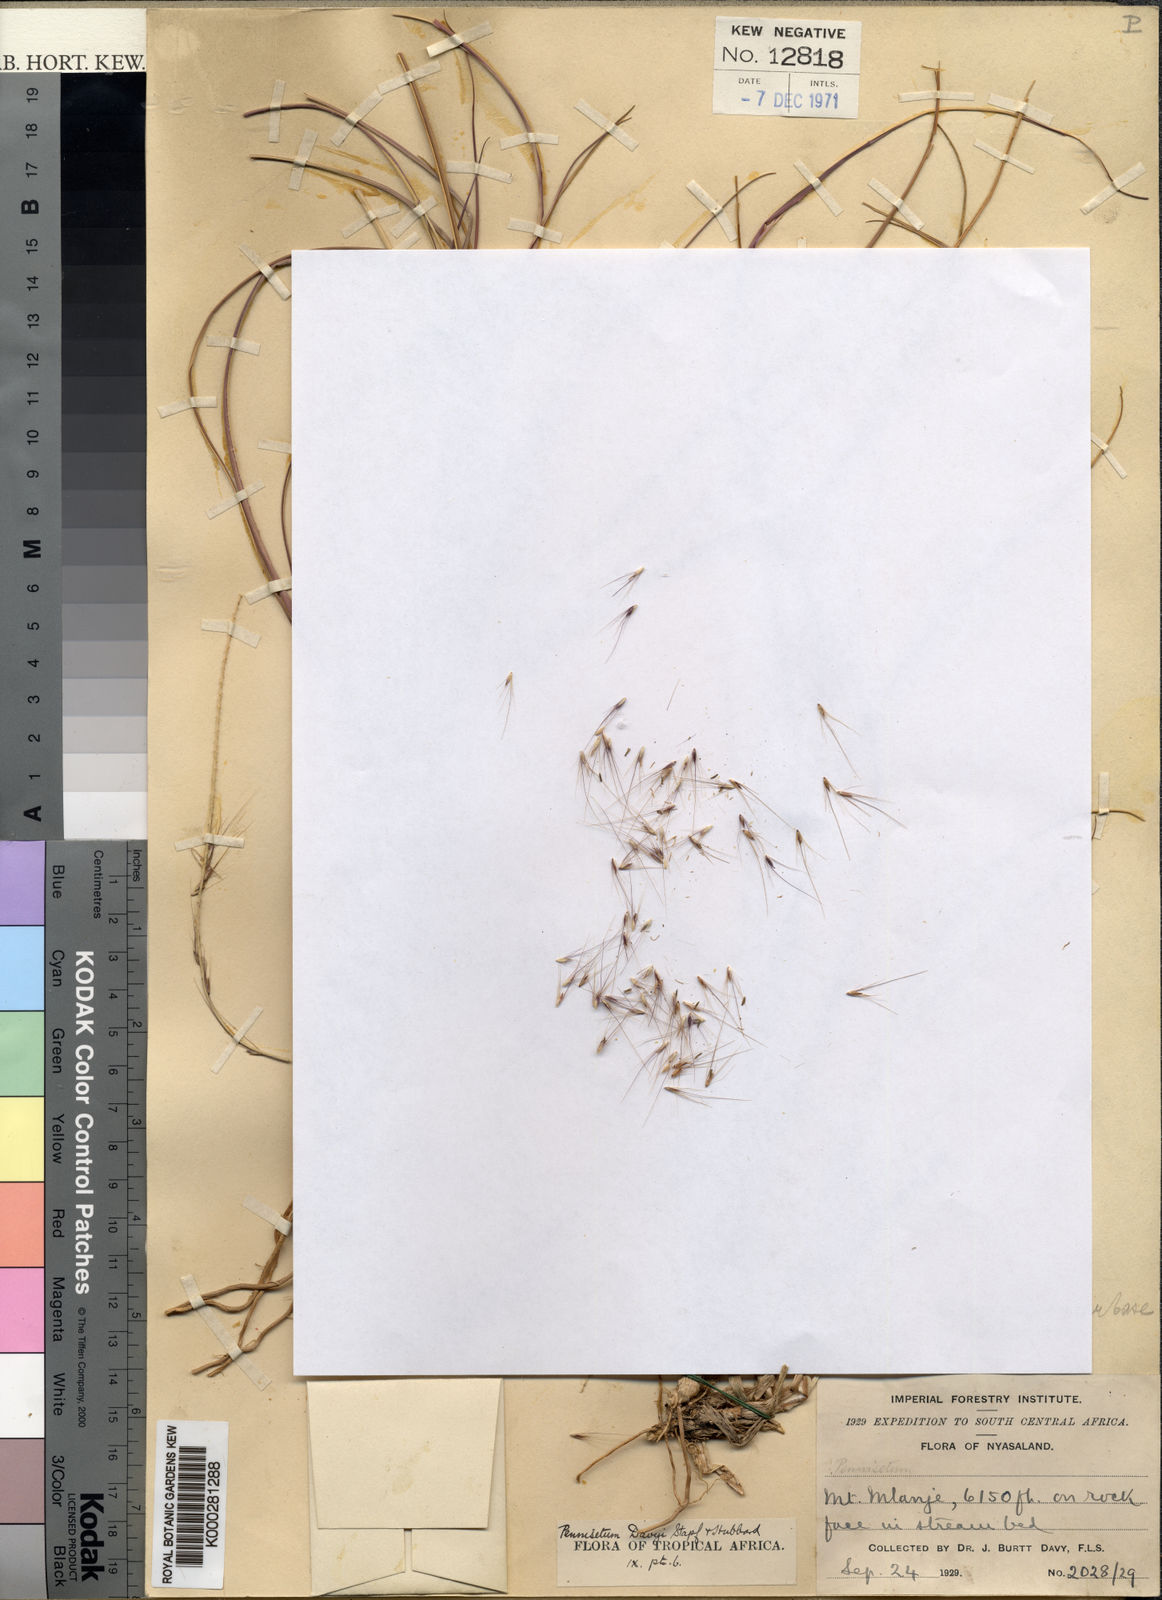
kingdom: Plantae
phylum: Tracheophyta
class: Liliopsida
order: Poales
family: Poaceae
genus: Cenchrus
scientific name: Cenchrus caudatus
